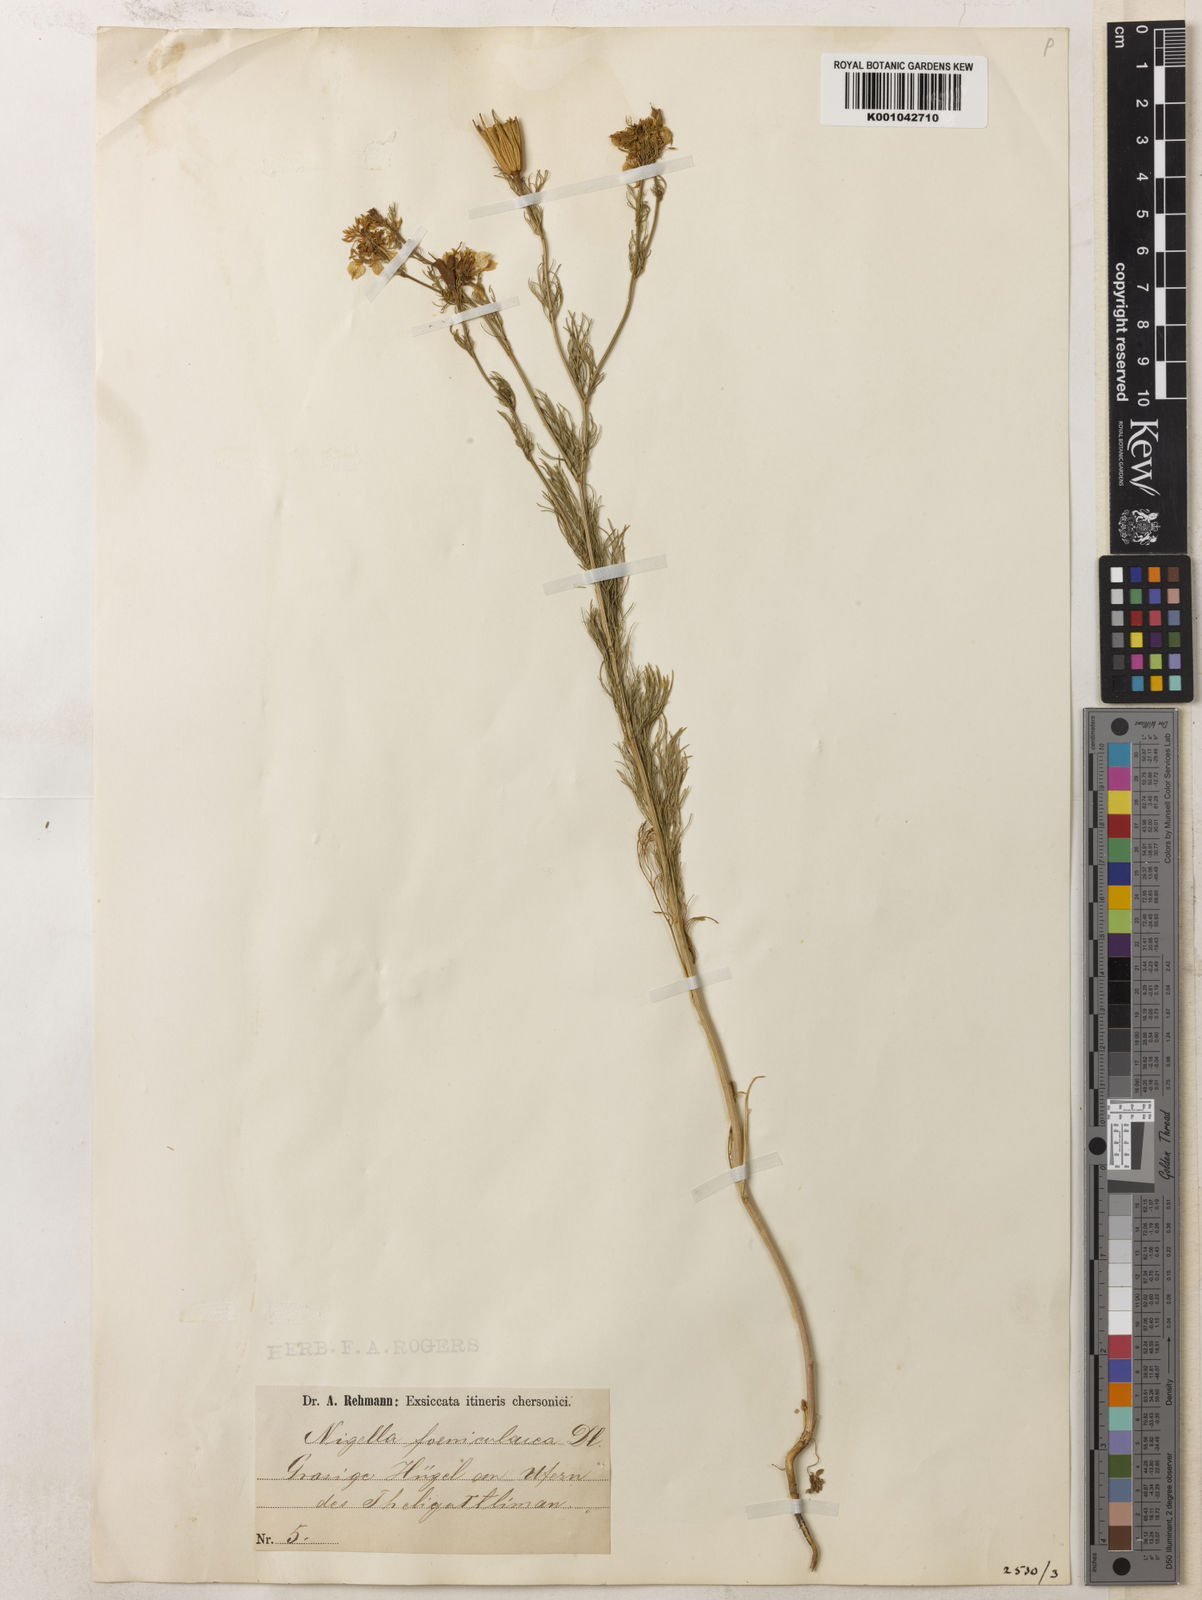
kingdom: Plantae
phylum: Tracheophyta
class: Magnoliopsida
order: Ranunculales
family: Ranunculaceae
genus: Nigella
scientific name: Nigella arvensis
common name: Wild fennel-flower
